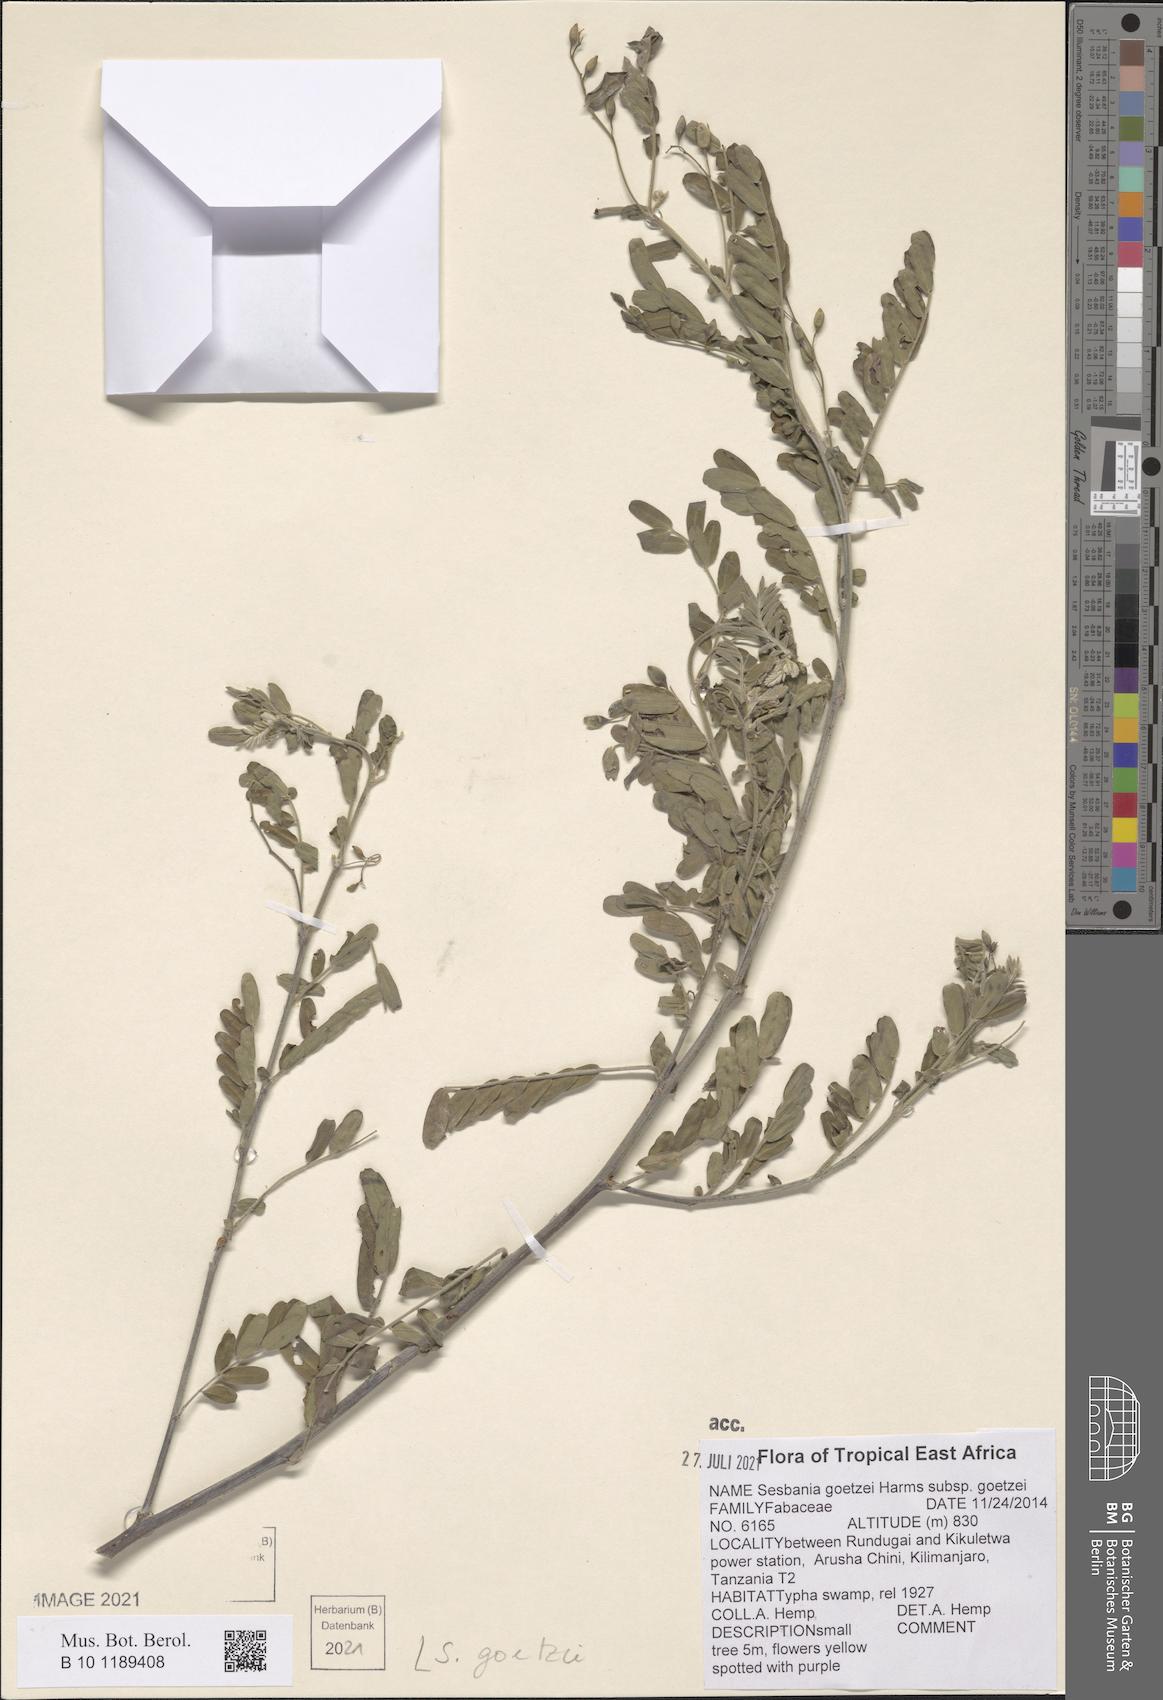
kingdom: Plantae
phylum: Tracheophyta
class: Magnoliopsida
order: Fabales
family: Fabaceae
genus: Sesbania
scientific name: Sesbania goetzei
